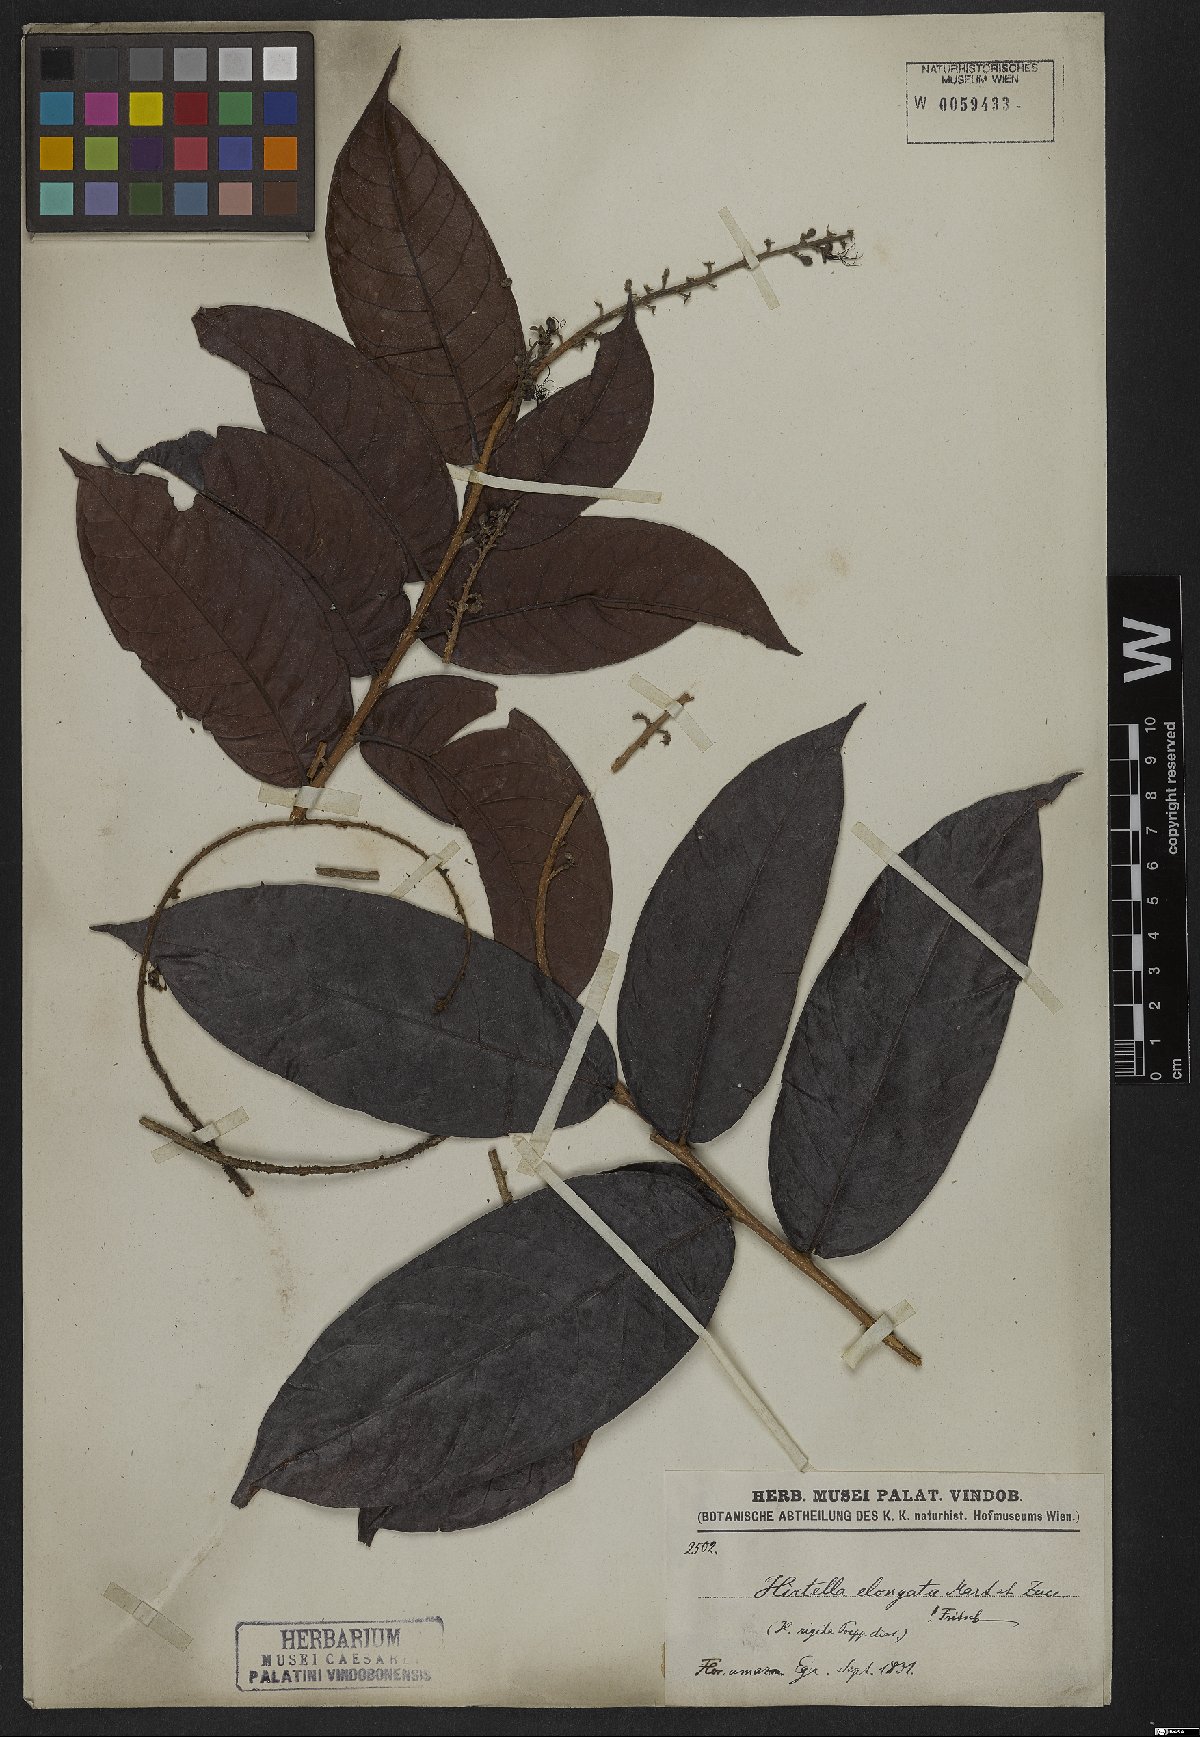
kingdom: Plantae
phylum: Tracheophyta
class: Magnoliopsida
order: Malpighiales
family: Chrysobalanaceae
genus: Hirtella
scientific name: Hirtella elongata
